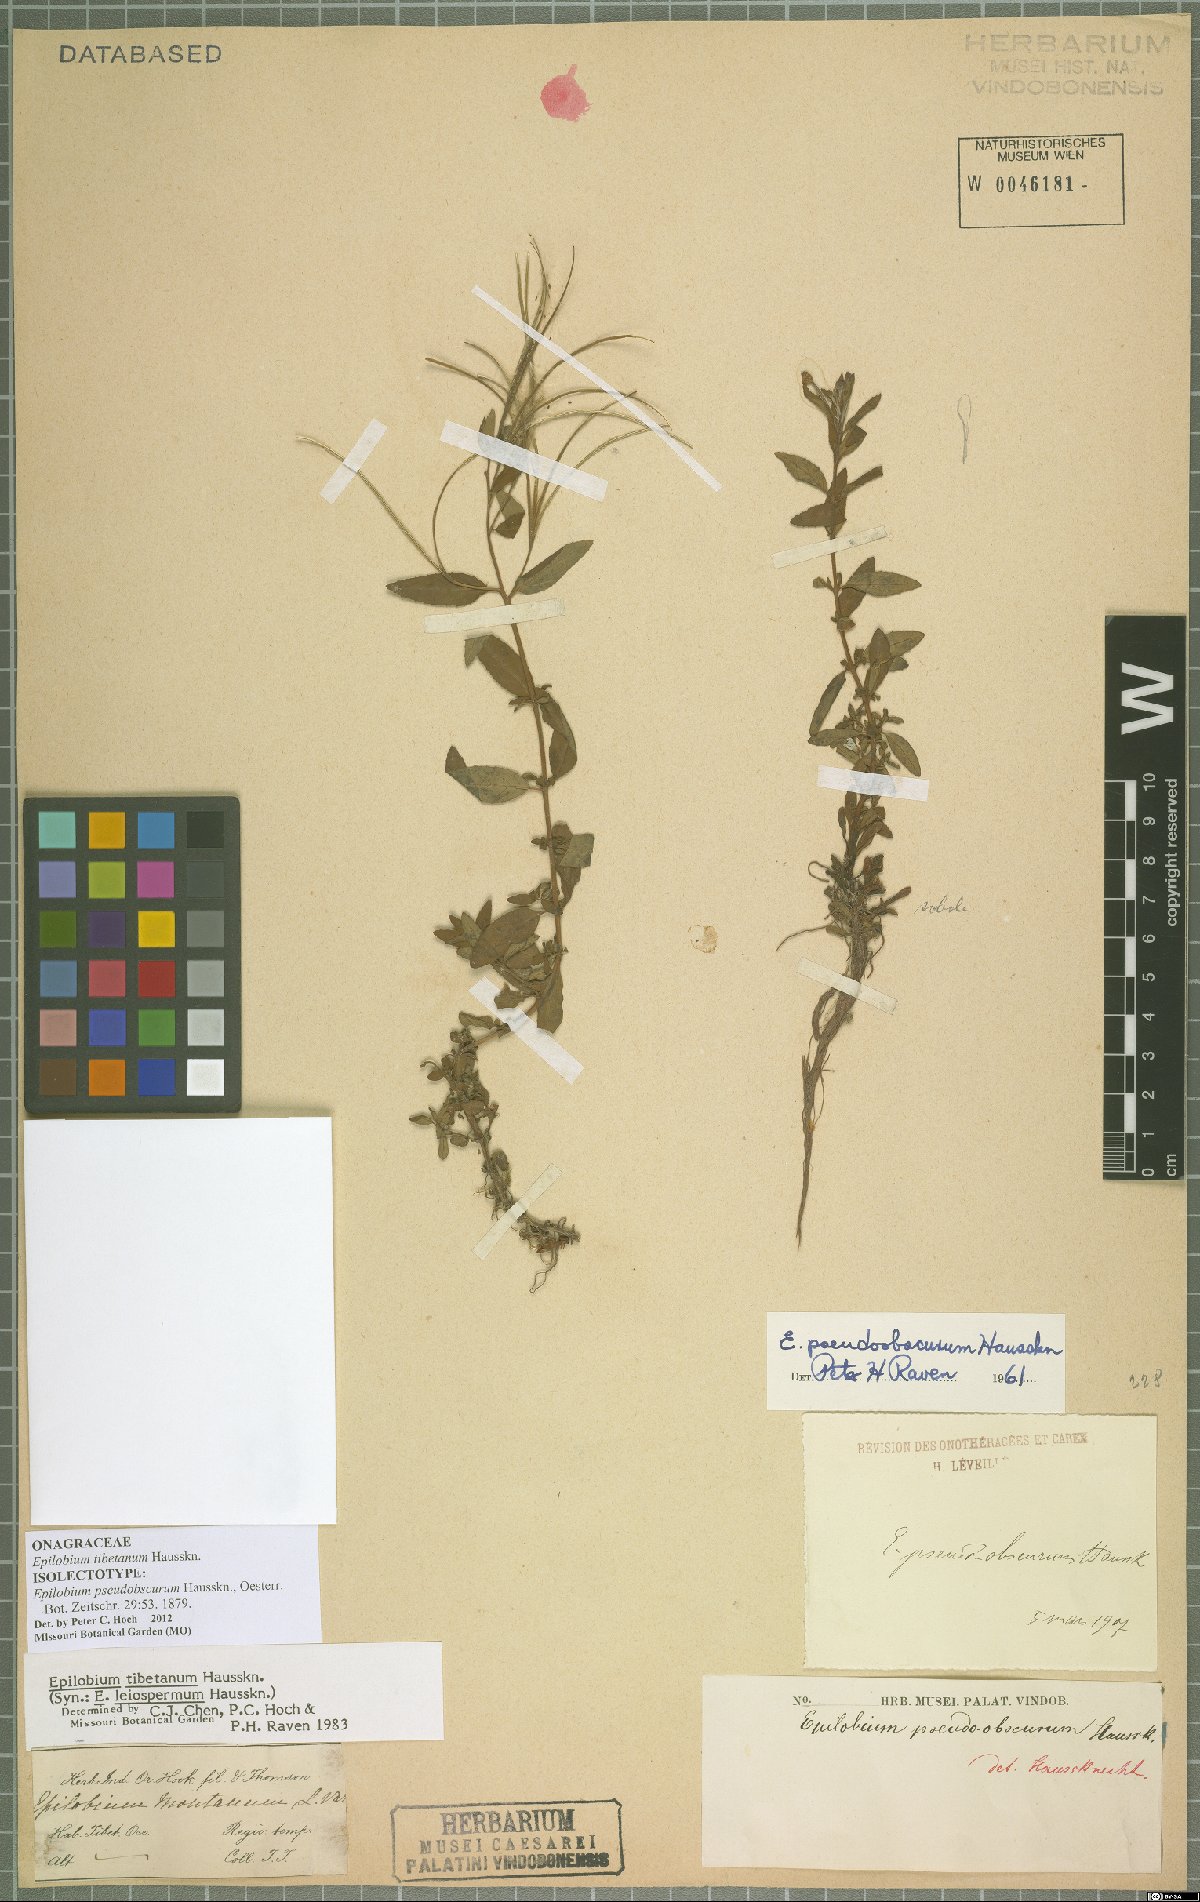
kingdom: Plantae
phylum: Tracheophyta
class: Magnoliopsida
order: Myrtales
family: Onagraceae
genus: Epilobium
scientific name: Epilobium tibetanum
